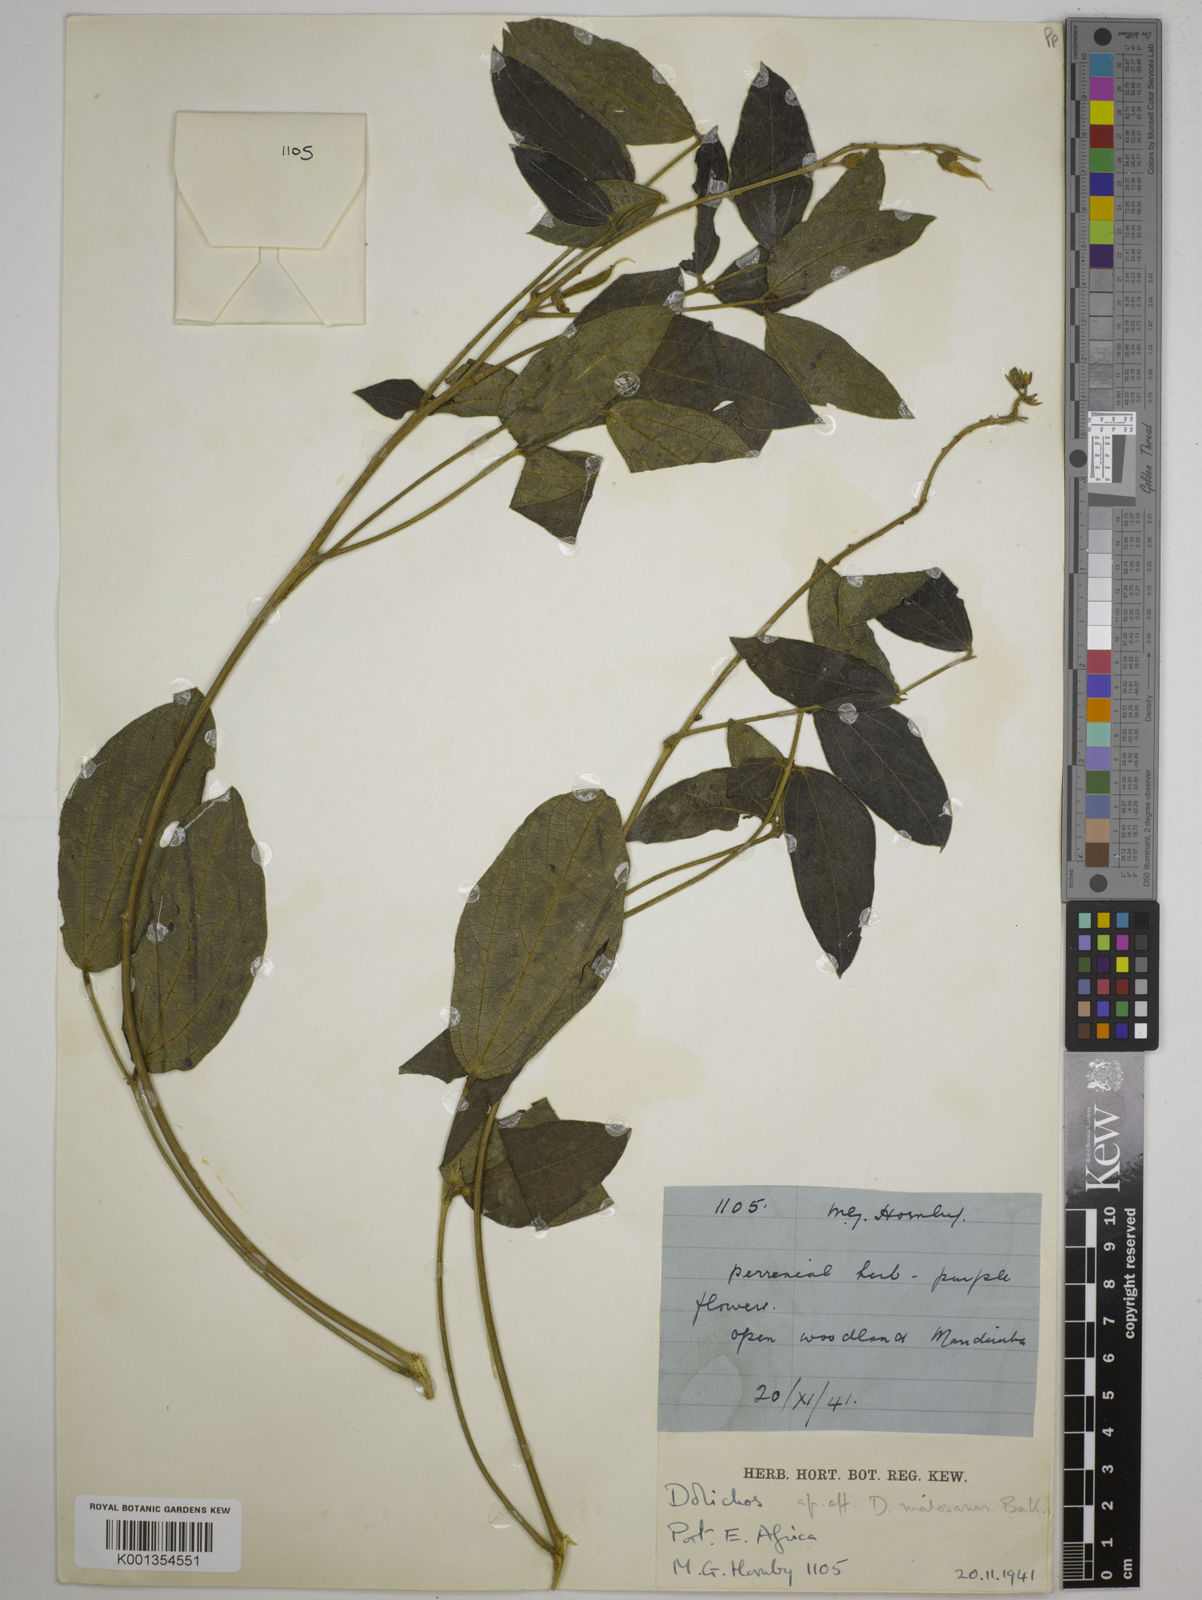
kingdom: Plantae
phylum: Tracheophyta
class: Magnoliopsida
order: Fabales
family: Fabaceae
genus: Dolichos
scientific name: Dolichos kilimandscharicus
